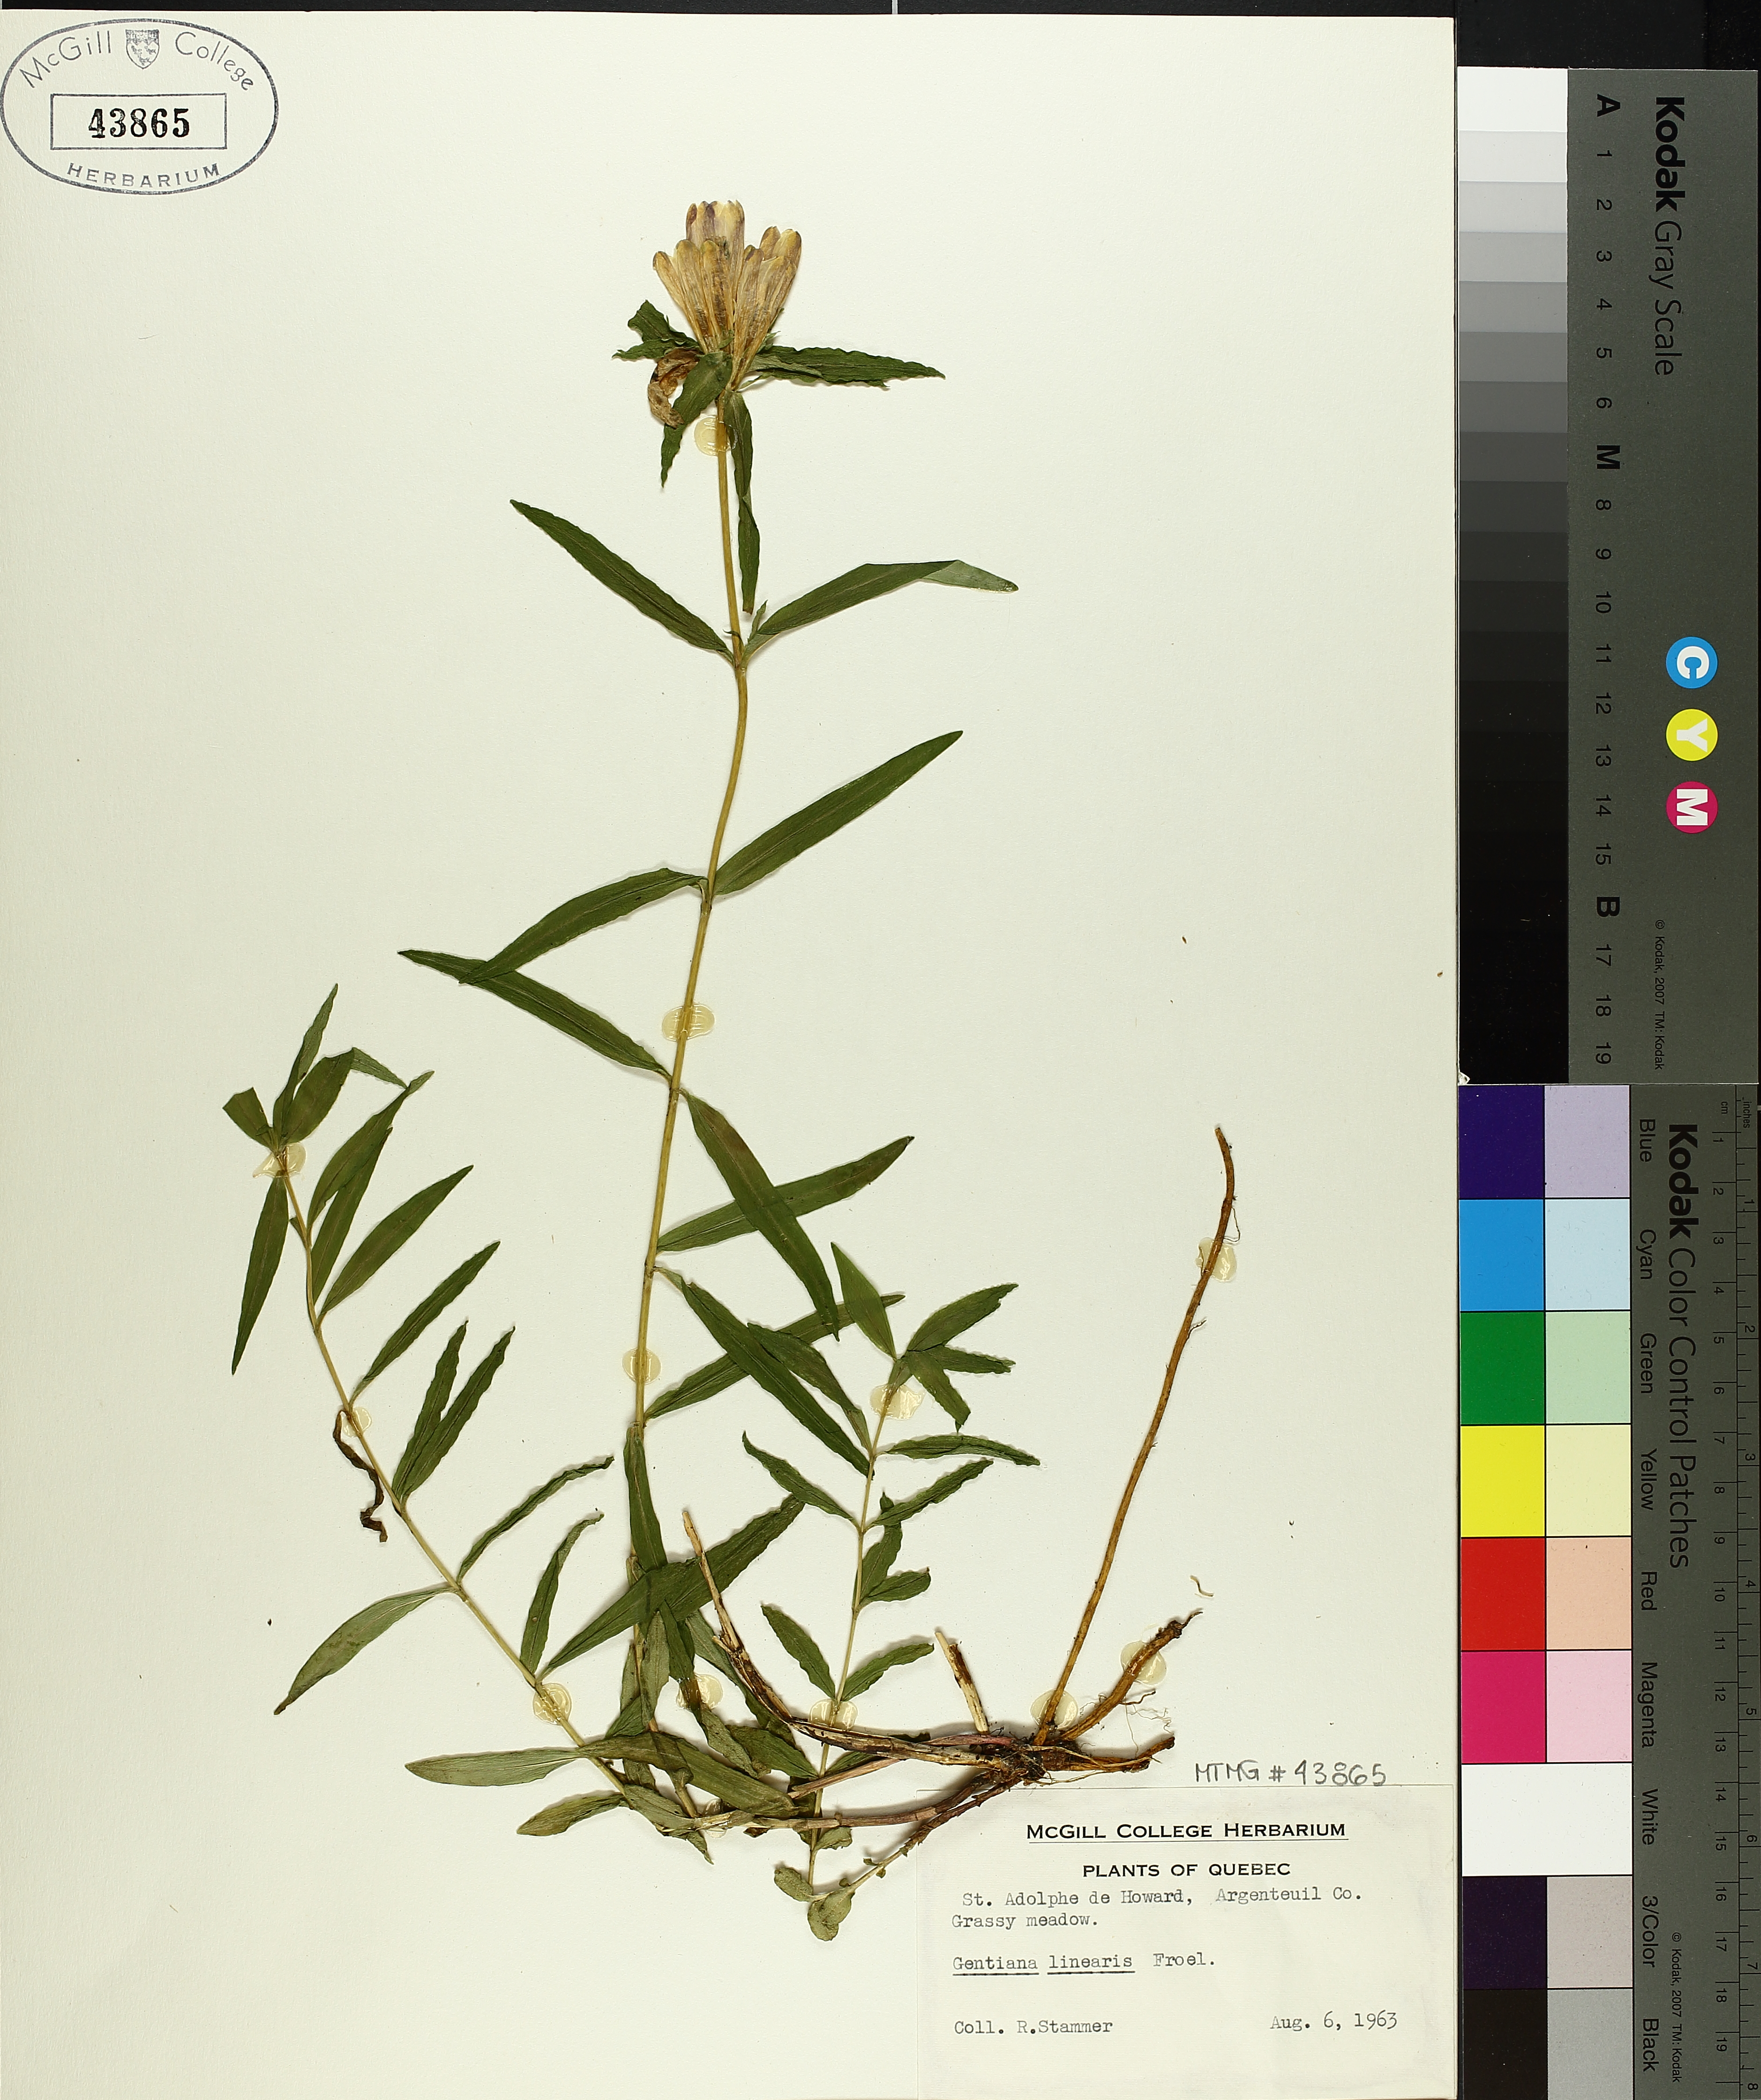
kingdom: Plantae
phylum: Tracheophyta
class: Magnoliopsida
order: Gentianales
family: Gentianaceae
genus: Gentiana
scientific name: Gentiana linearis
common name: Bastard gentian
